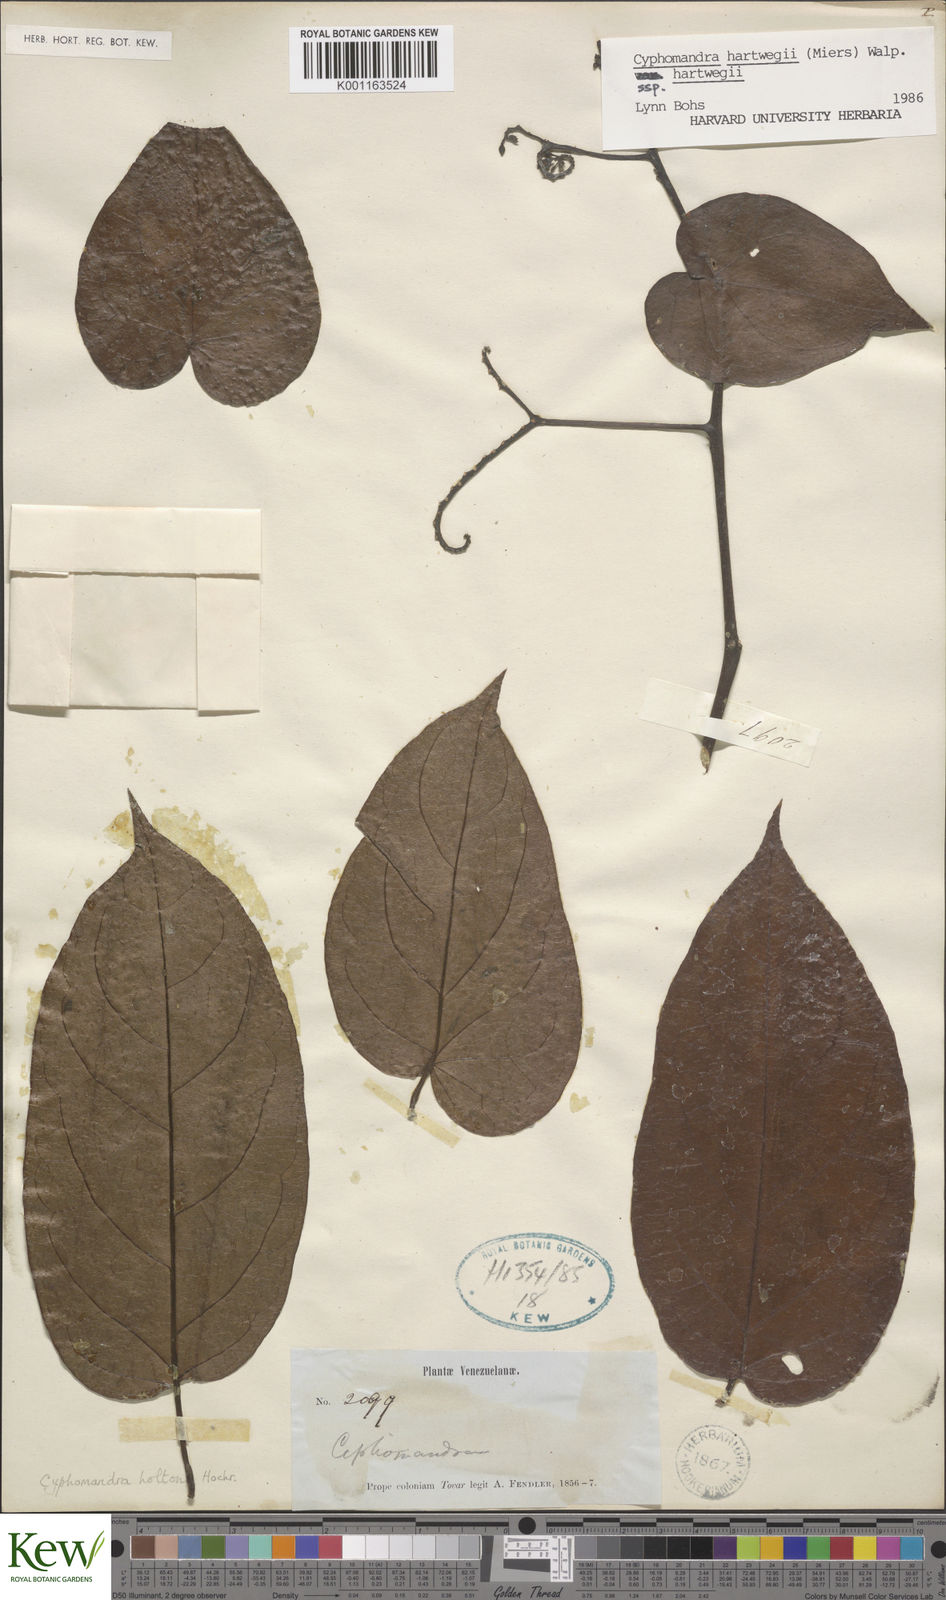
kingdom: Plantae
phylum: Tracheophyta
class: Magnoliopsida
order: Solanales
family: Solanaceae
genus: Solanum
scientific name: Solanum splendens
